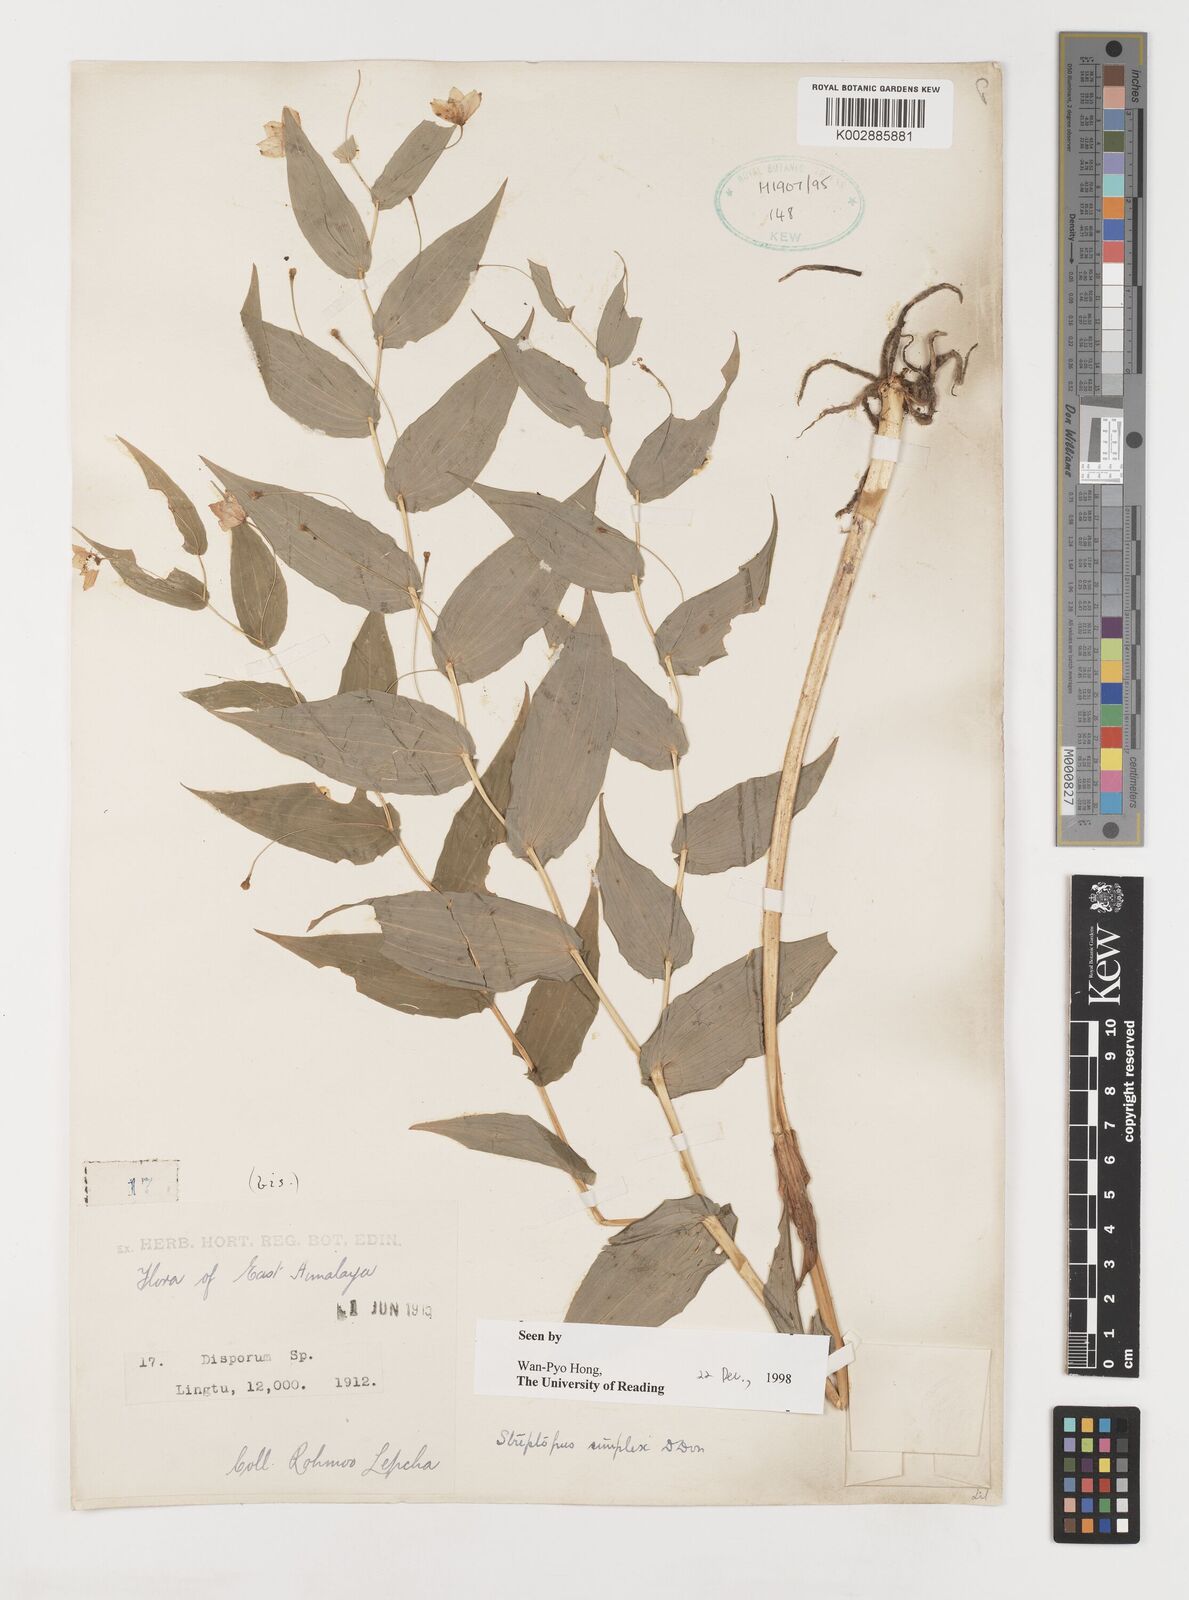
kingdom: Plantae
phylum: Tracheophyta
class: Liliopsida
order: Liliales
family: Liliaceae
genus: Streptopus
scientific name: Streptopus simplex
